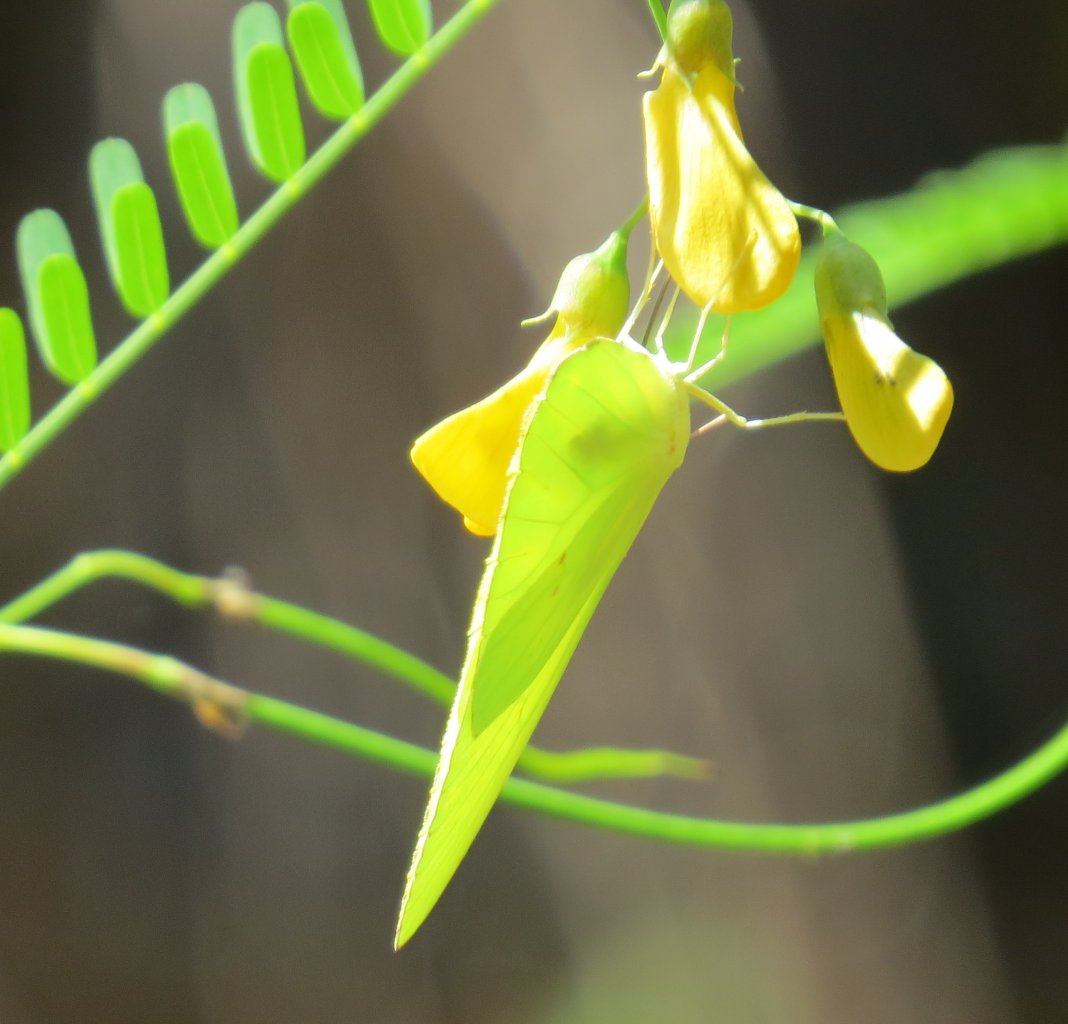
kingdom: Animalia
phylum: Arthropoda
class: Insecta
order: Lepidoptera
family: Pieridae
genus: Phoebis
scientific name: Phoebis sennae
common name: Cloudless Sulphur
